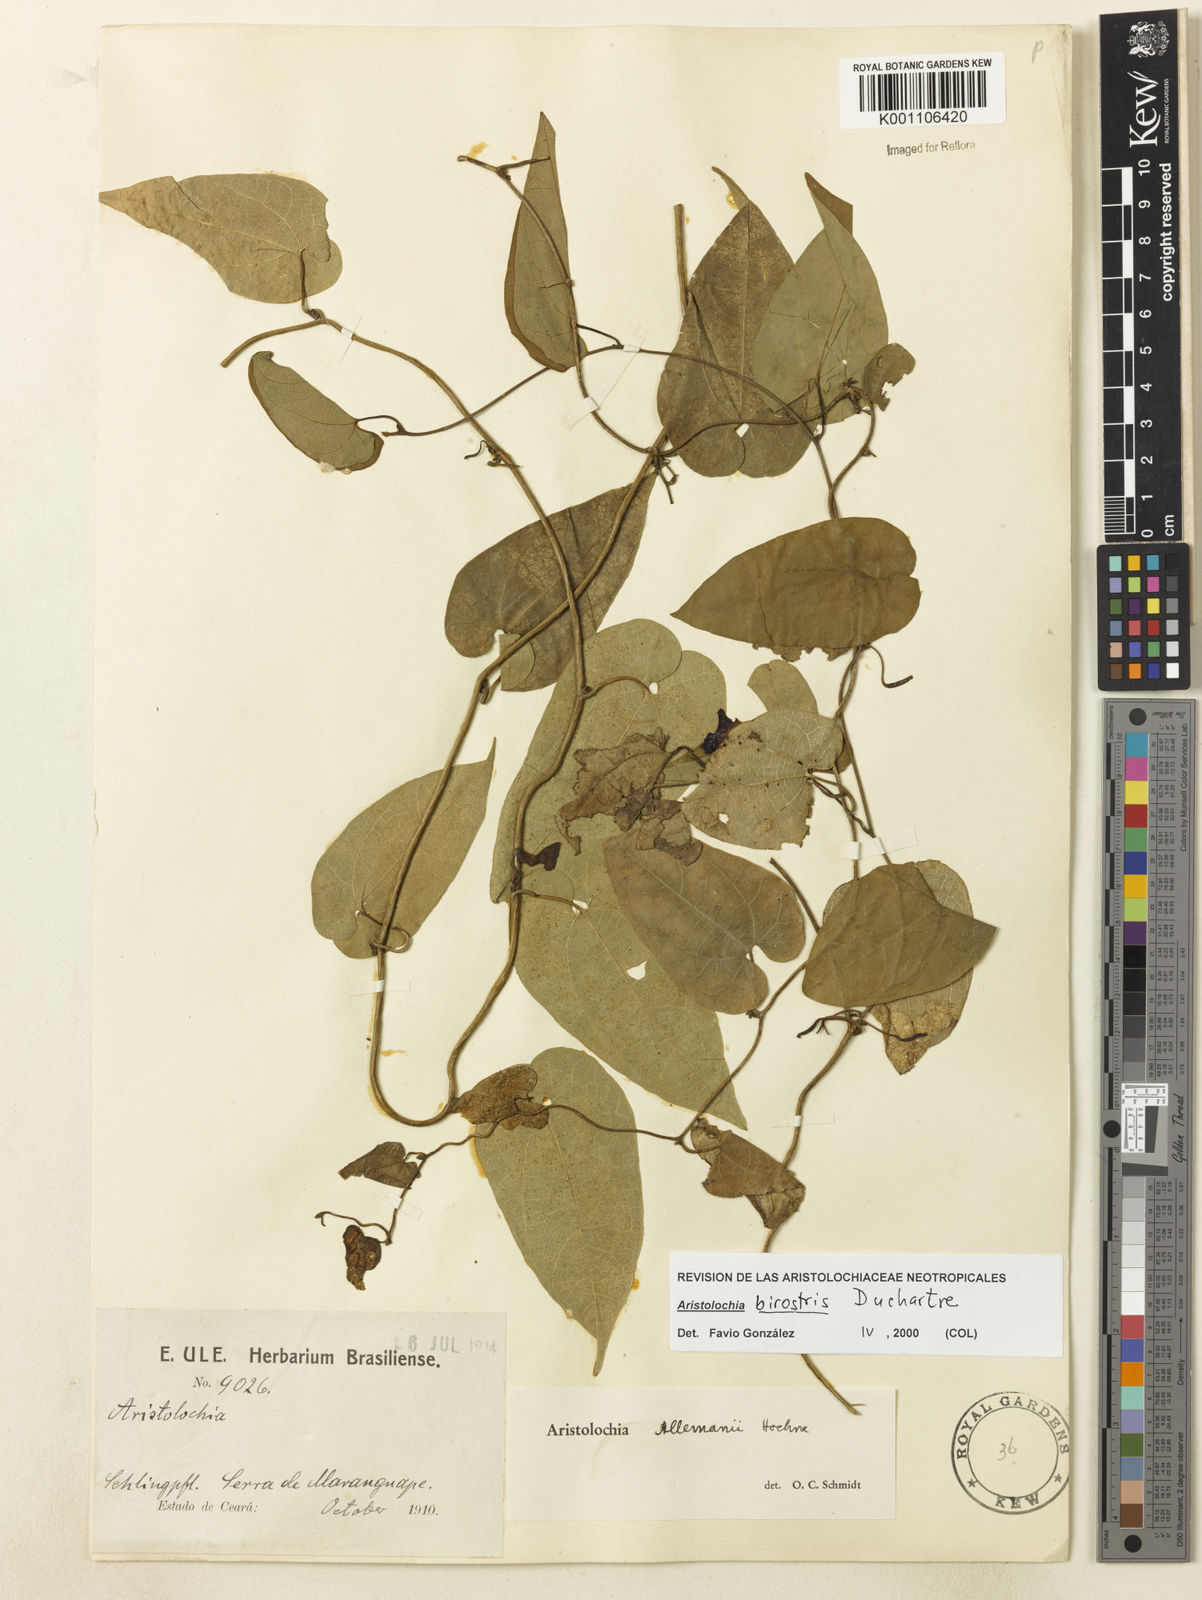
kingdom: Plantae
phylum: Tracheophyta
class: Magnoliopsida
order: Piperales
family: Aristolochiaceae
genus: Aristolochia
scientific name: Aristolochia birostris
